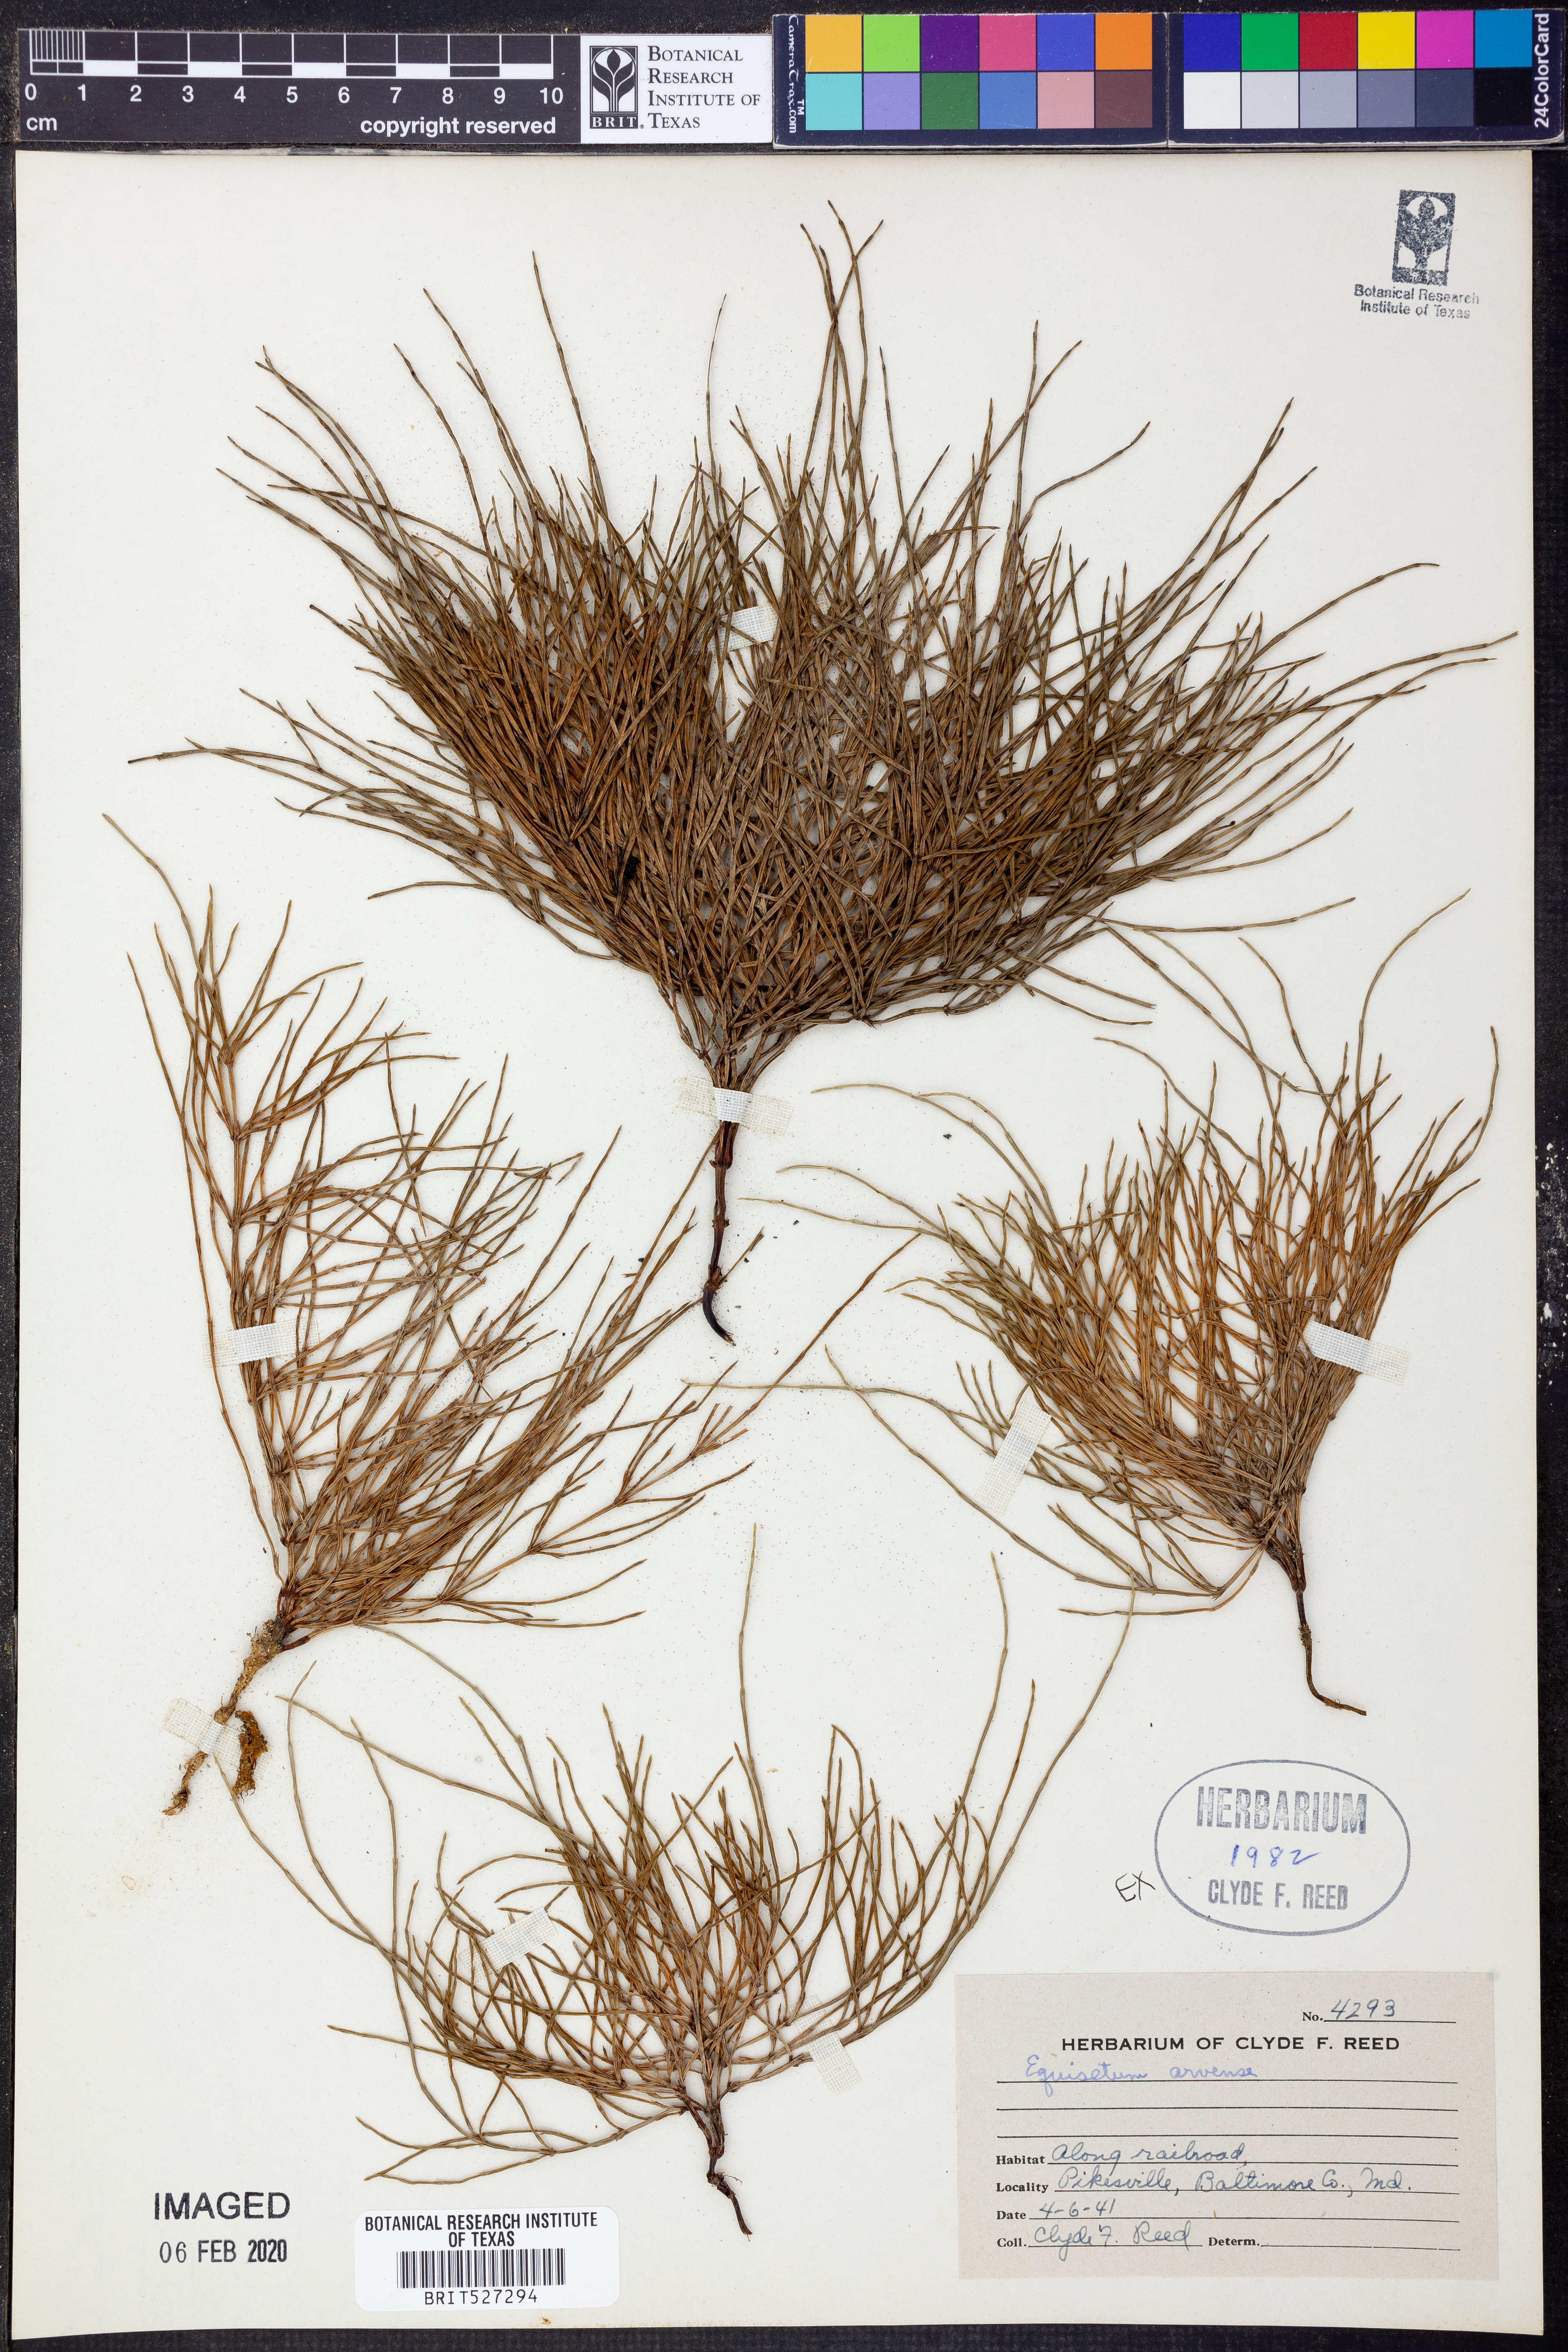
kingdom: Plantae
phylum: Tracheophyta
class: Polypodiopsida
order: Equisetales
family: Equisetaceae
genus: Equisetum
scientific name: Equisetum arvense
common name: Field horsetail
